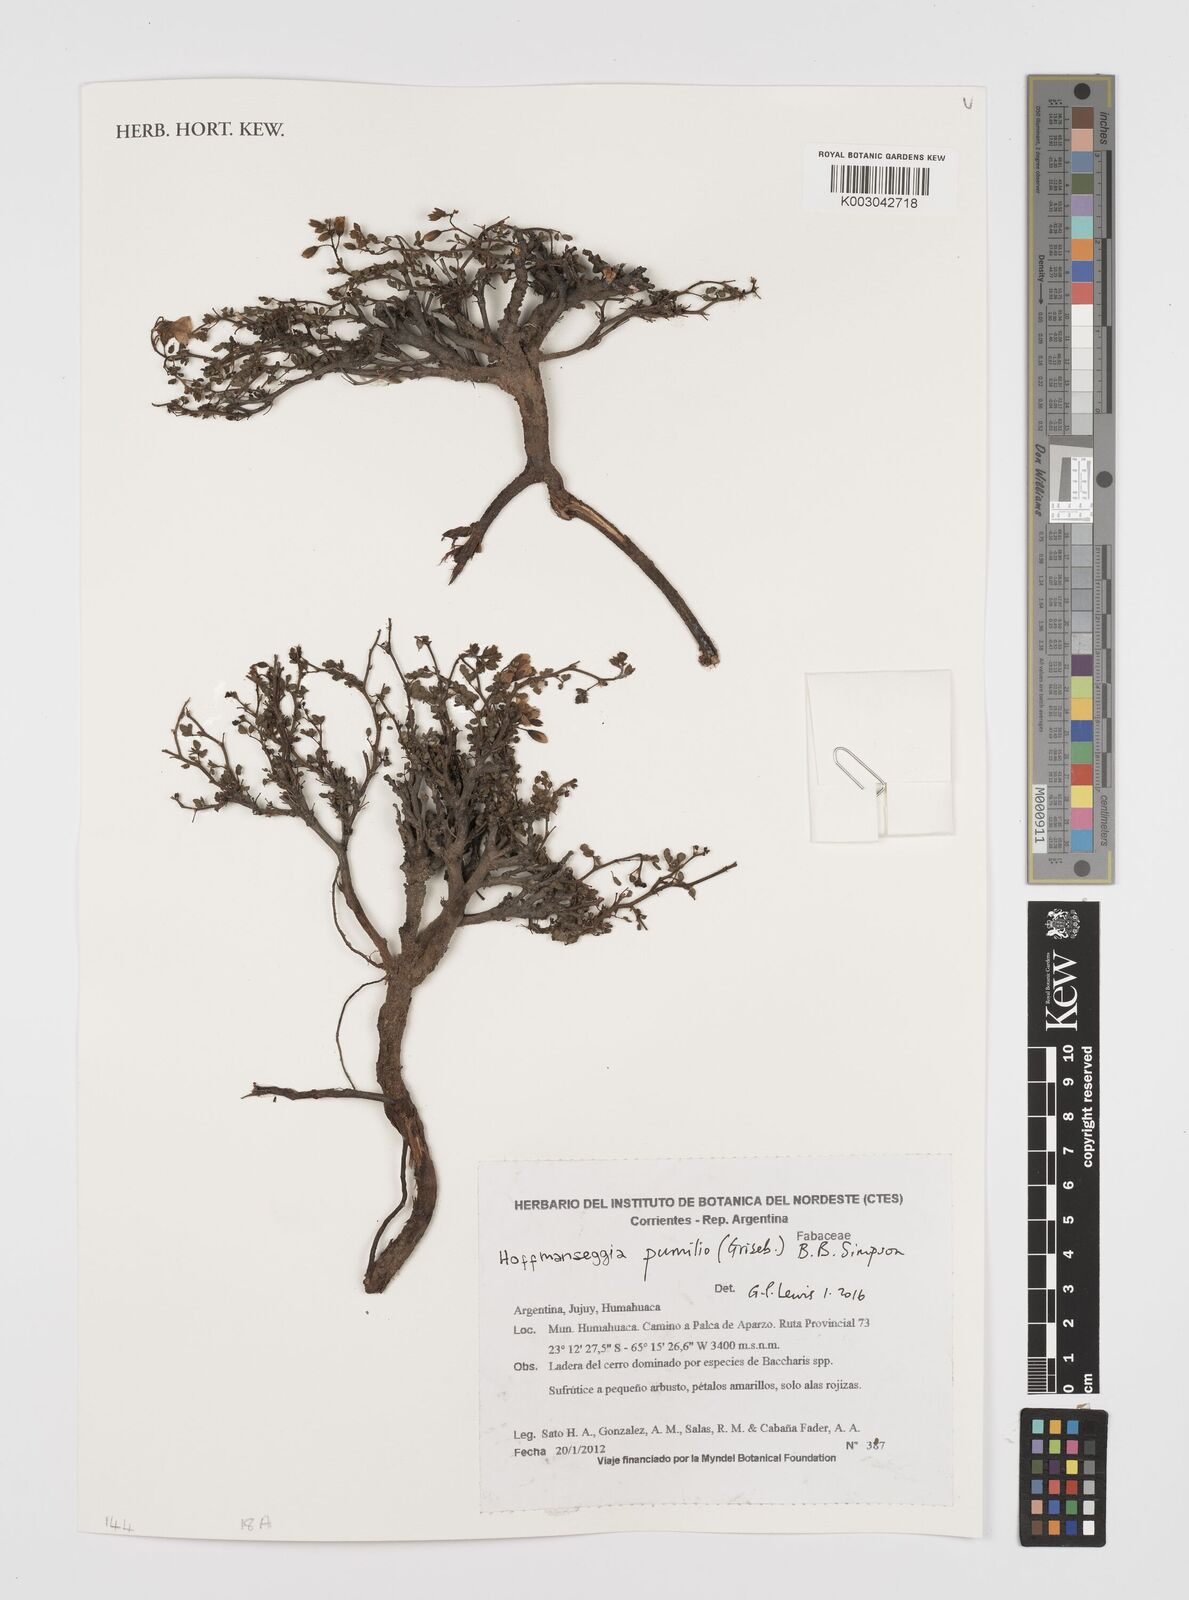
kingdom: Plantae
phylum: Tracheophyta
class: Magnoliopsida
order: Fabales
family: Fabaceae
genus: Hoffmannseggia
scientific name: Hoffmannseggia pumilio
